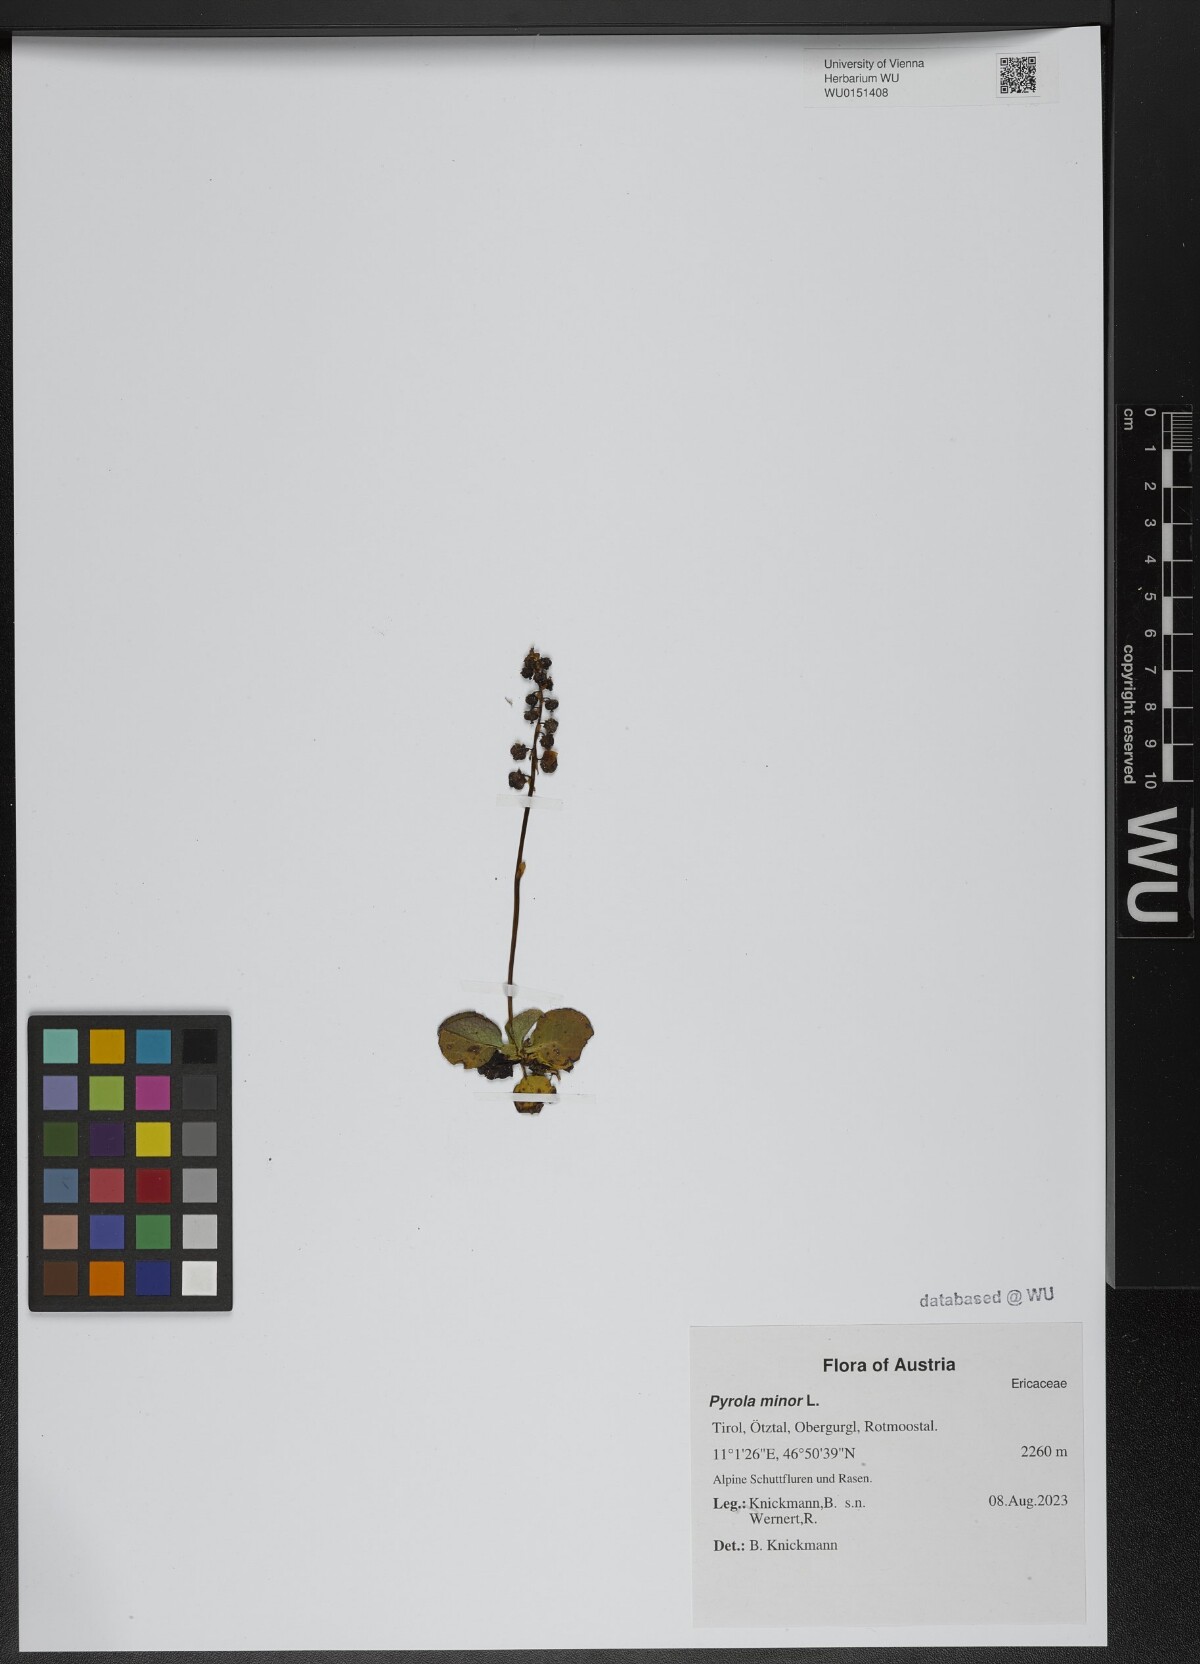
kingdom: Plantae
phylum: Tracheophyta
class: Magnoliopsida
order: Ericales
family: Ericaceae
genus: Pyrola
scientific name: Pyrola minor
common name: Common wintergreen
